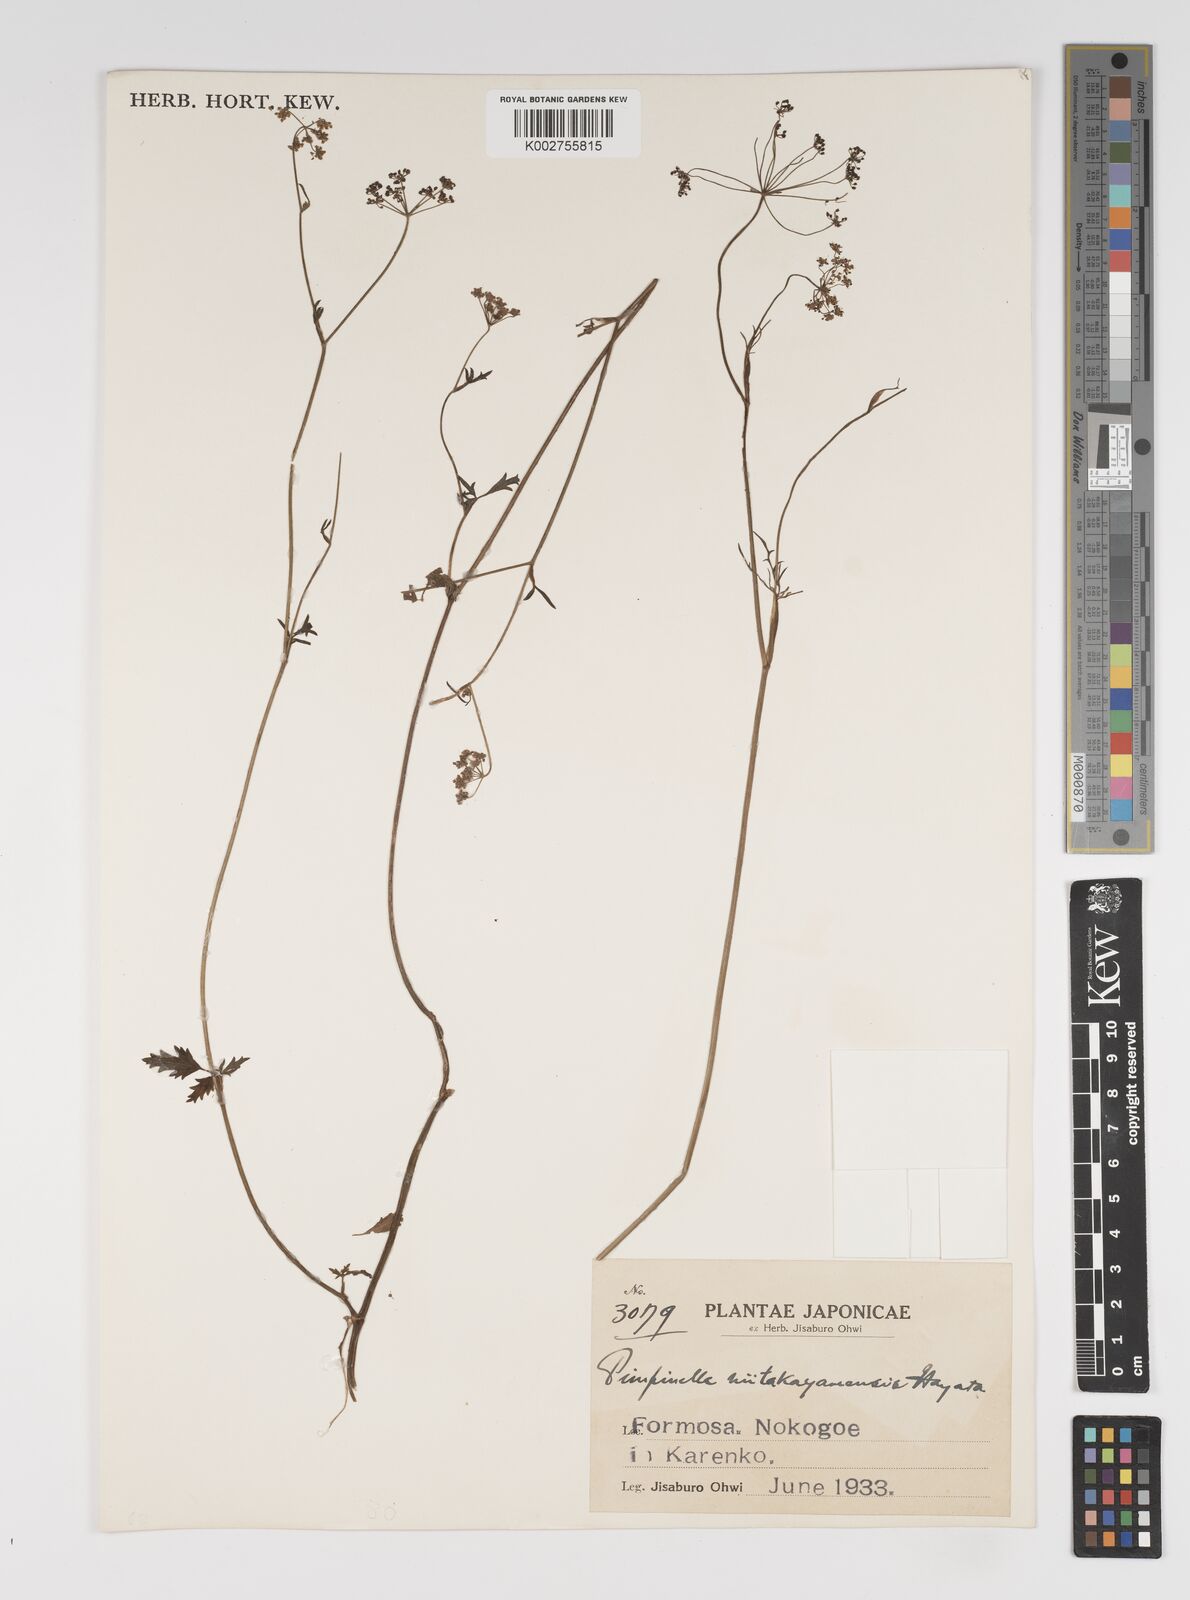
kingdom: Plantae
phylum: Tracheophyta
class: Magnoliopsida
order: Apiales
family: Apiaceae
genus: Pimpinella
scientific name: Pimpinella niitakayamensis
